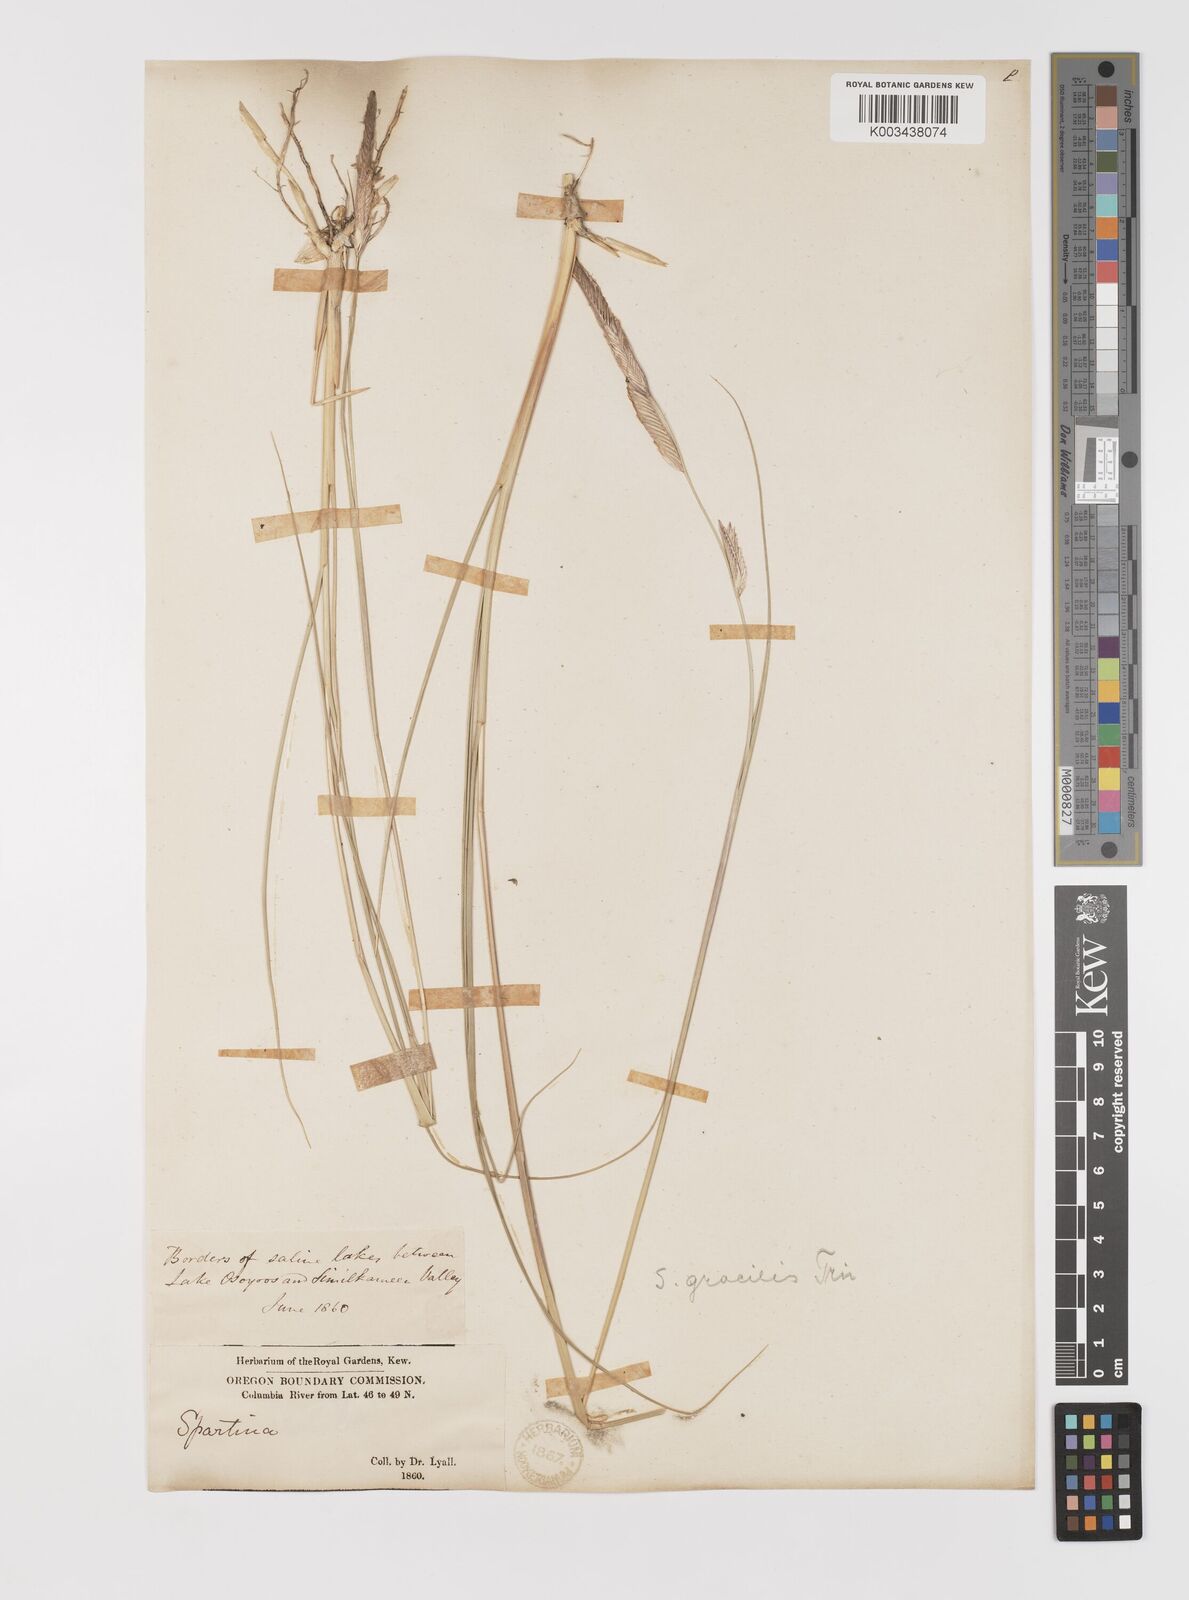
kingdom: Plantae
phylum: Tracheophyta
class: Liliopsida
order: Poales
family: Poaceae
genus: Sporobolus
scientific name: Sporobolus hookerianus
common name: Alkali cordgrass
